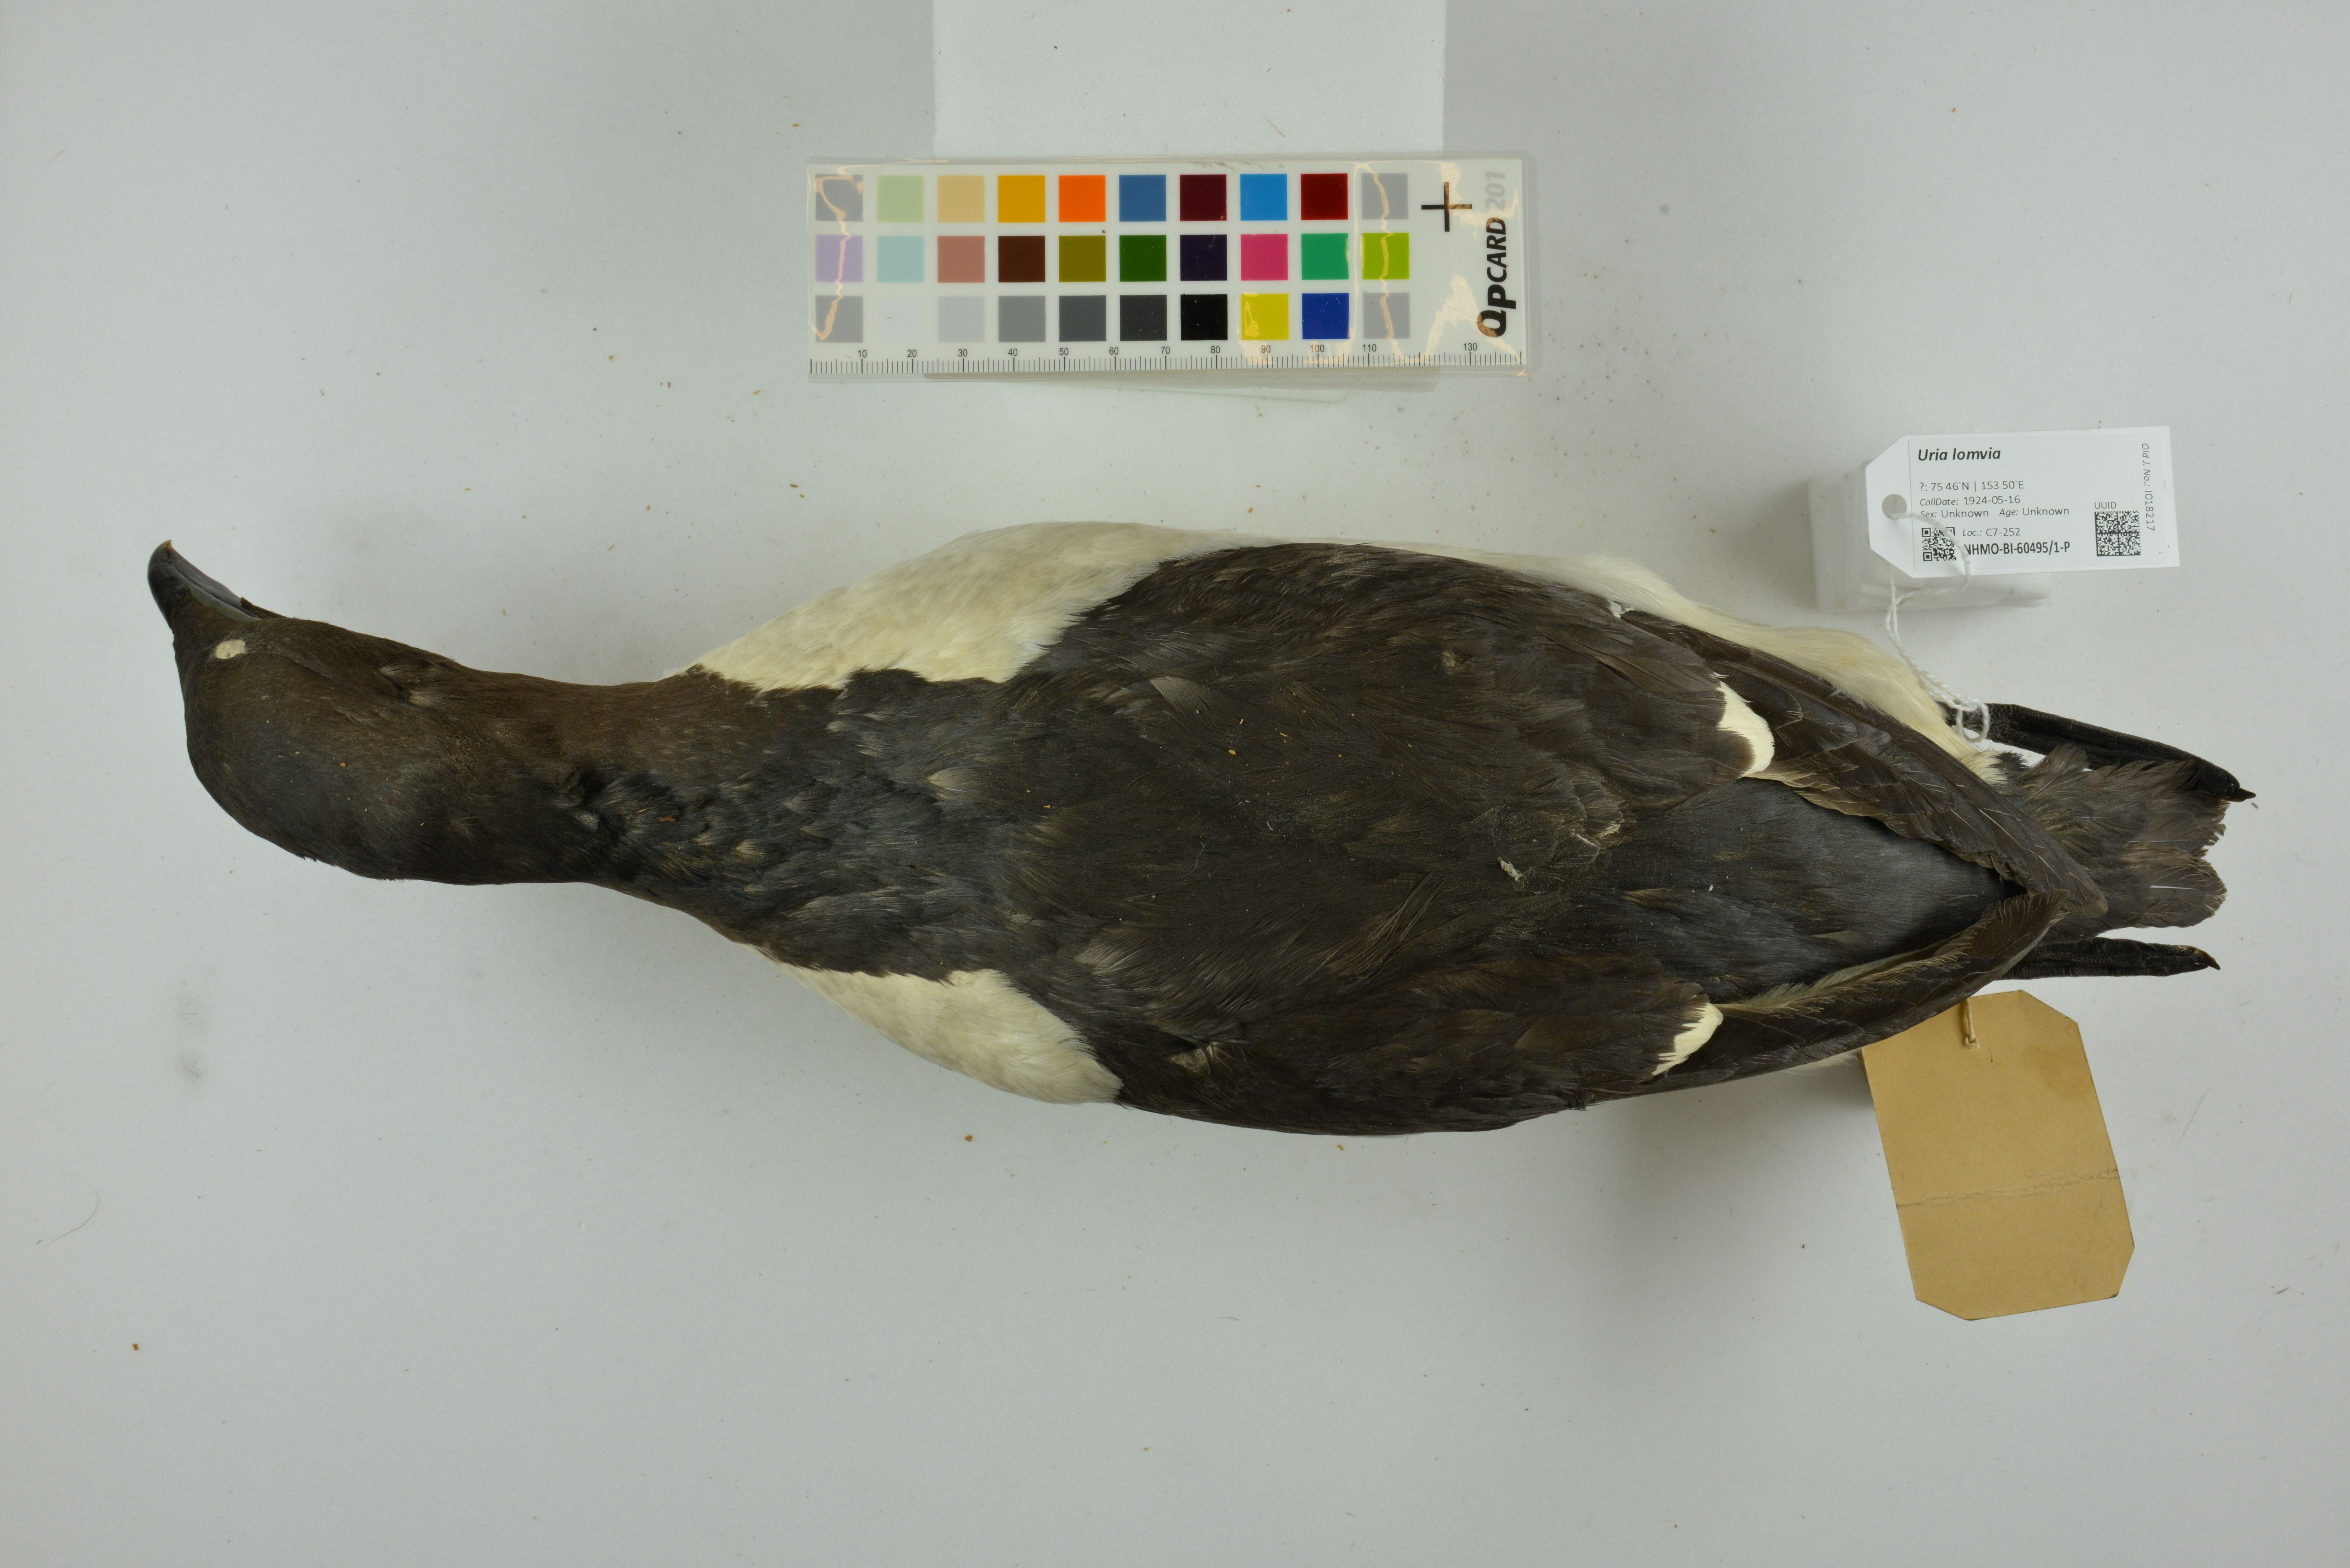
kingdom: Animalia
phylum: Chordata
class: Aves
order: Charadriiformes
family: Alcidae
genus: Uria
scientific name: Uria lomvia
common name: Thick-billed murre
